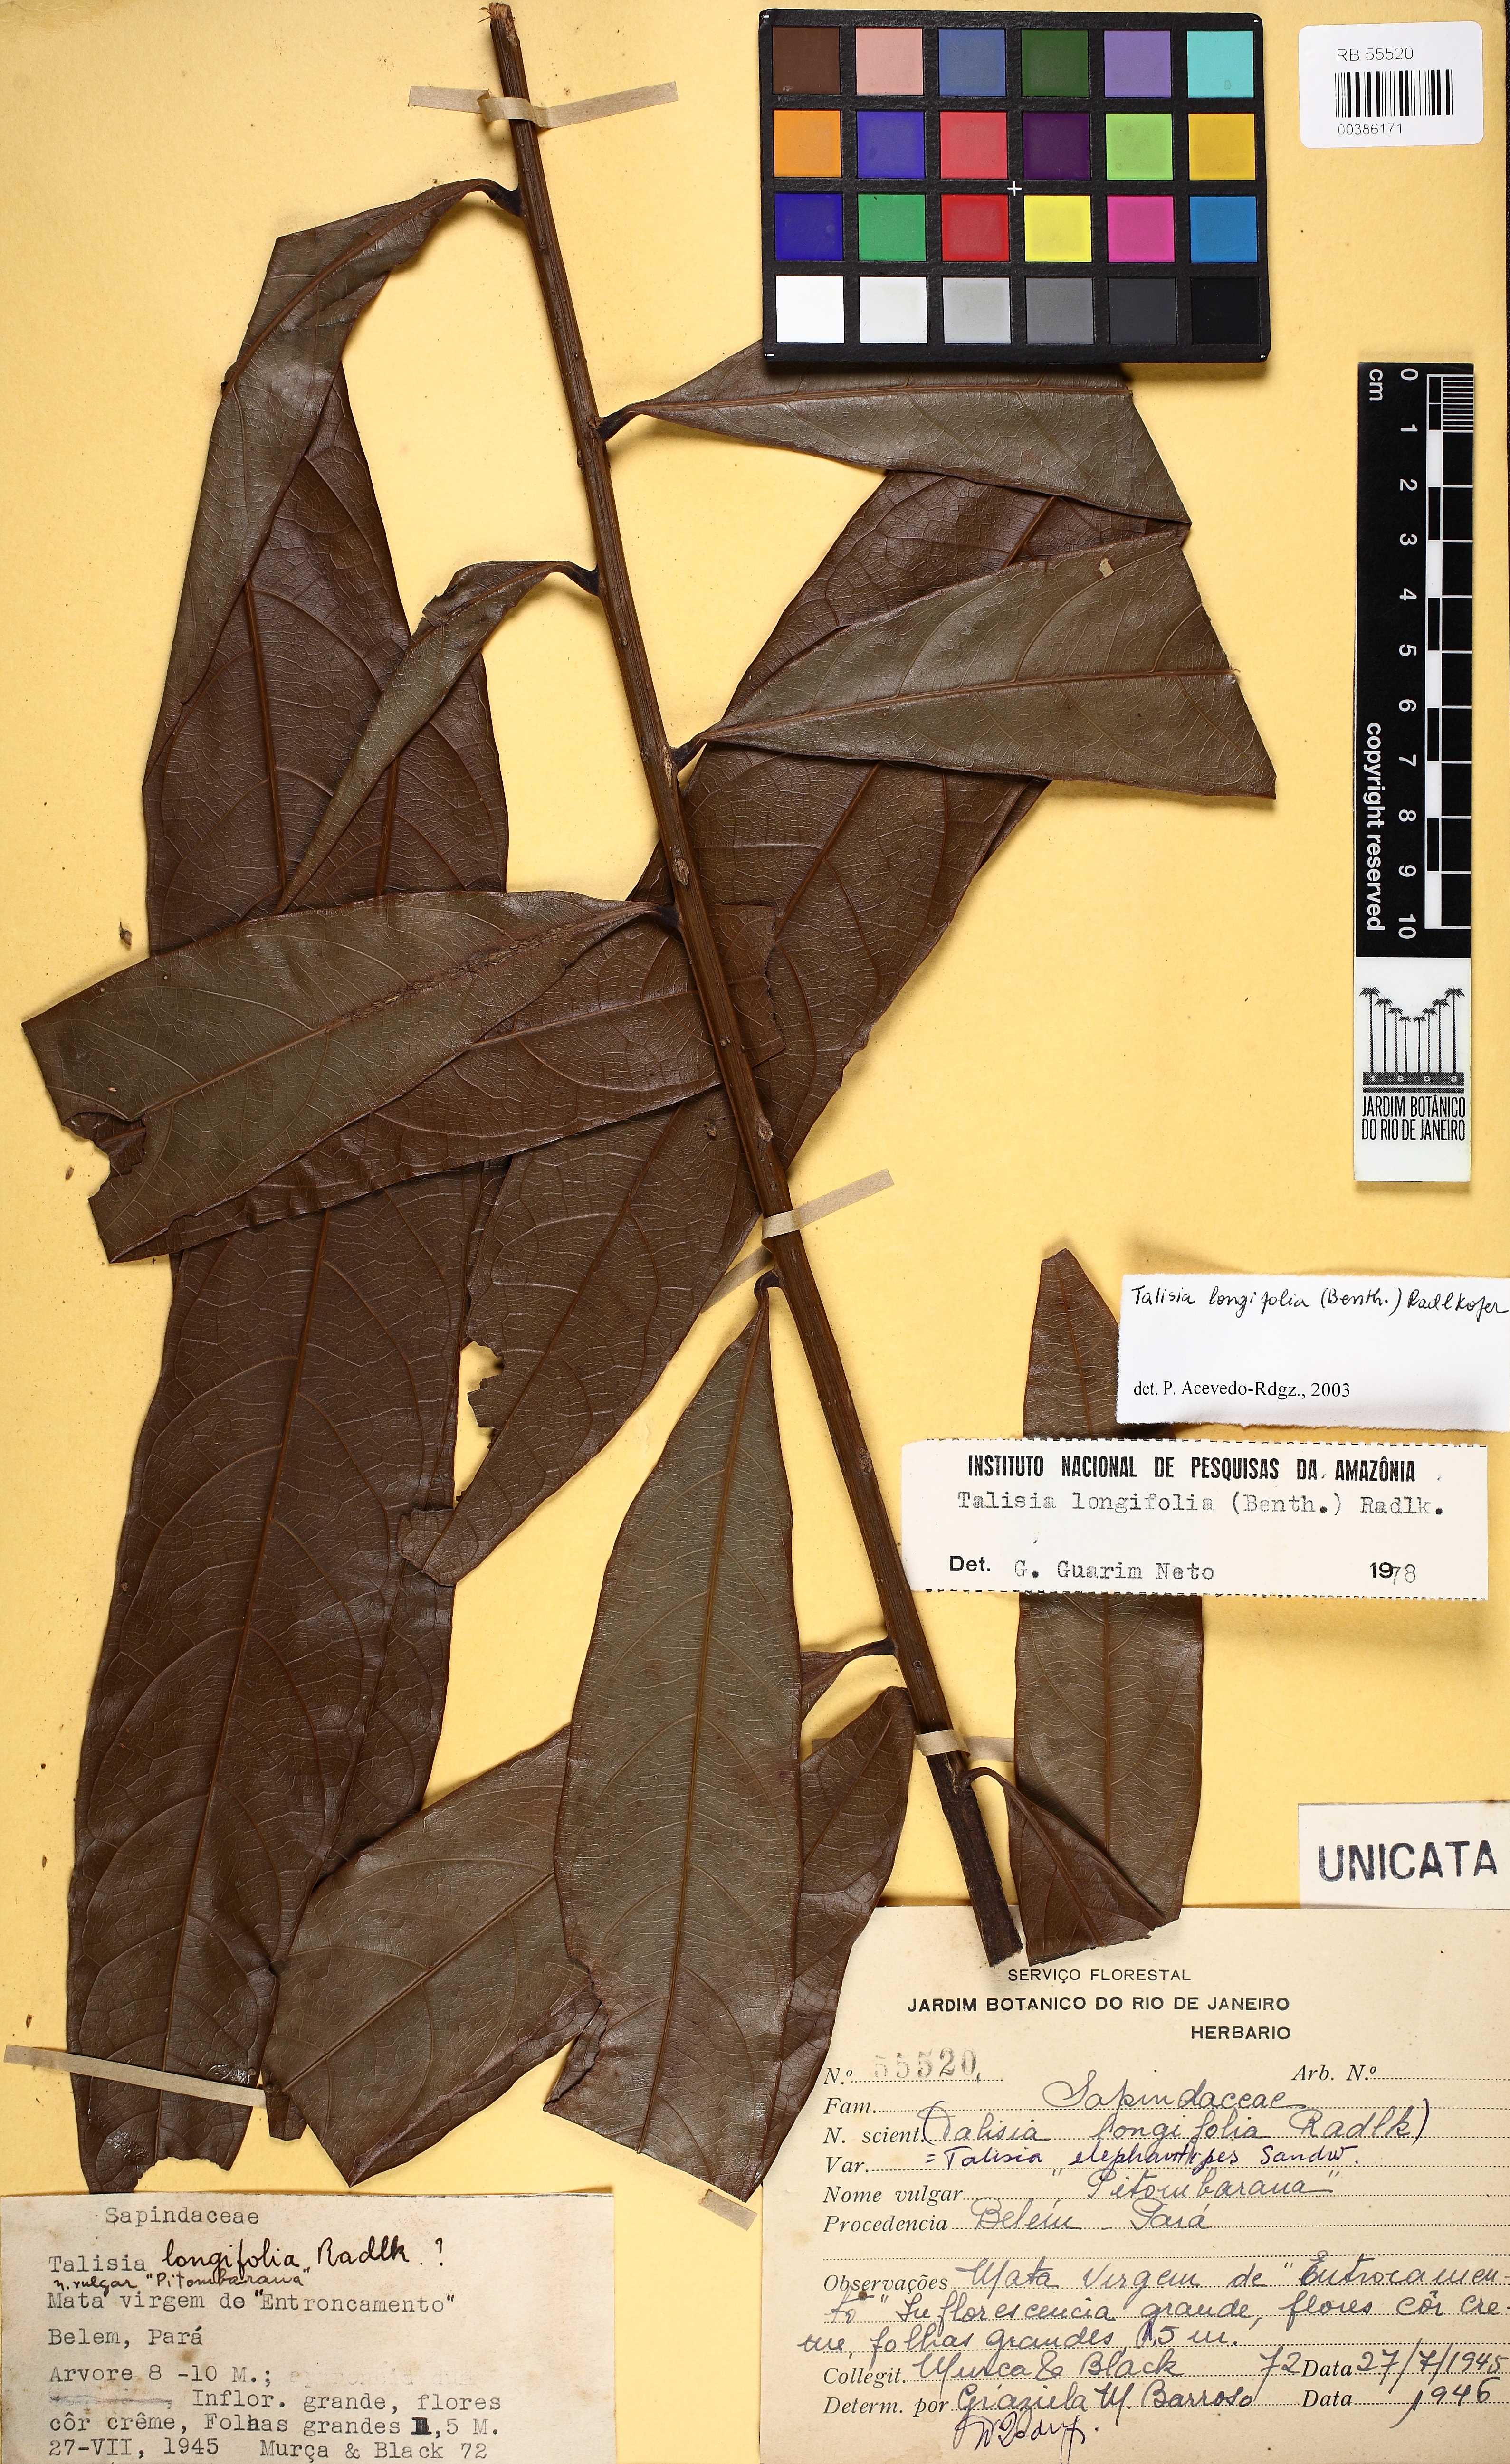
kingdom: Plantae
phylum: Tracheophyta
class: Magnoliopsida
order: Sapindales
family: Sapindaceae
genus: Talisia
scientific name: Talisia longifolia
